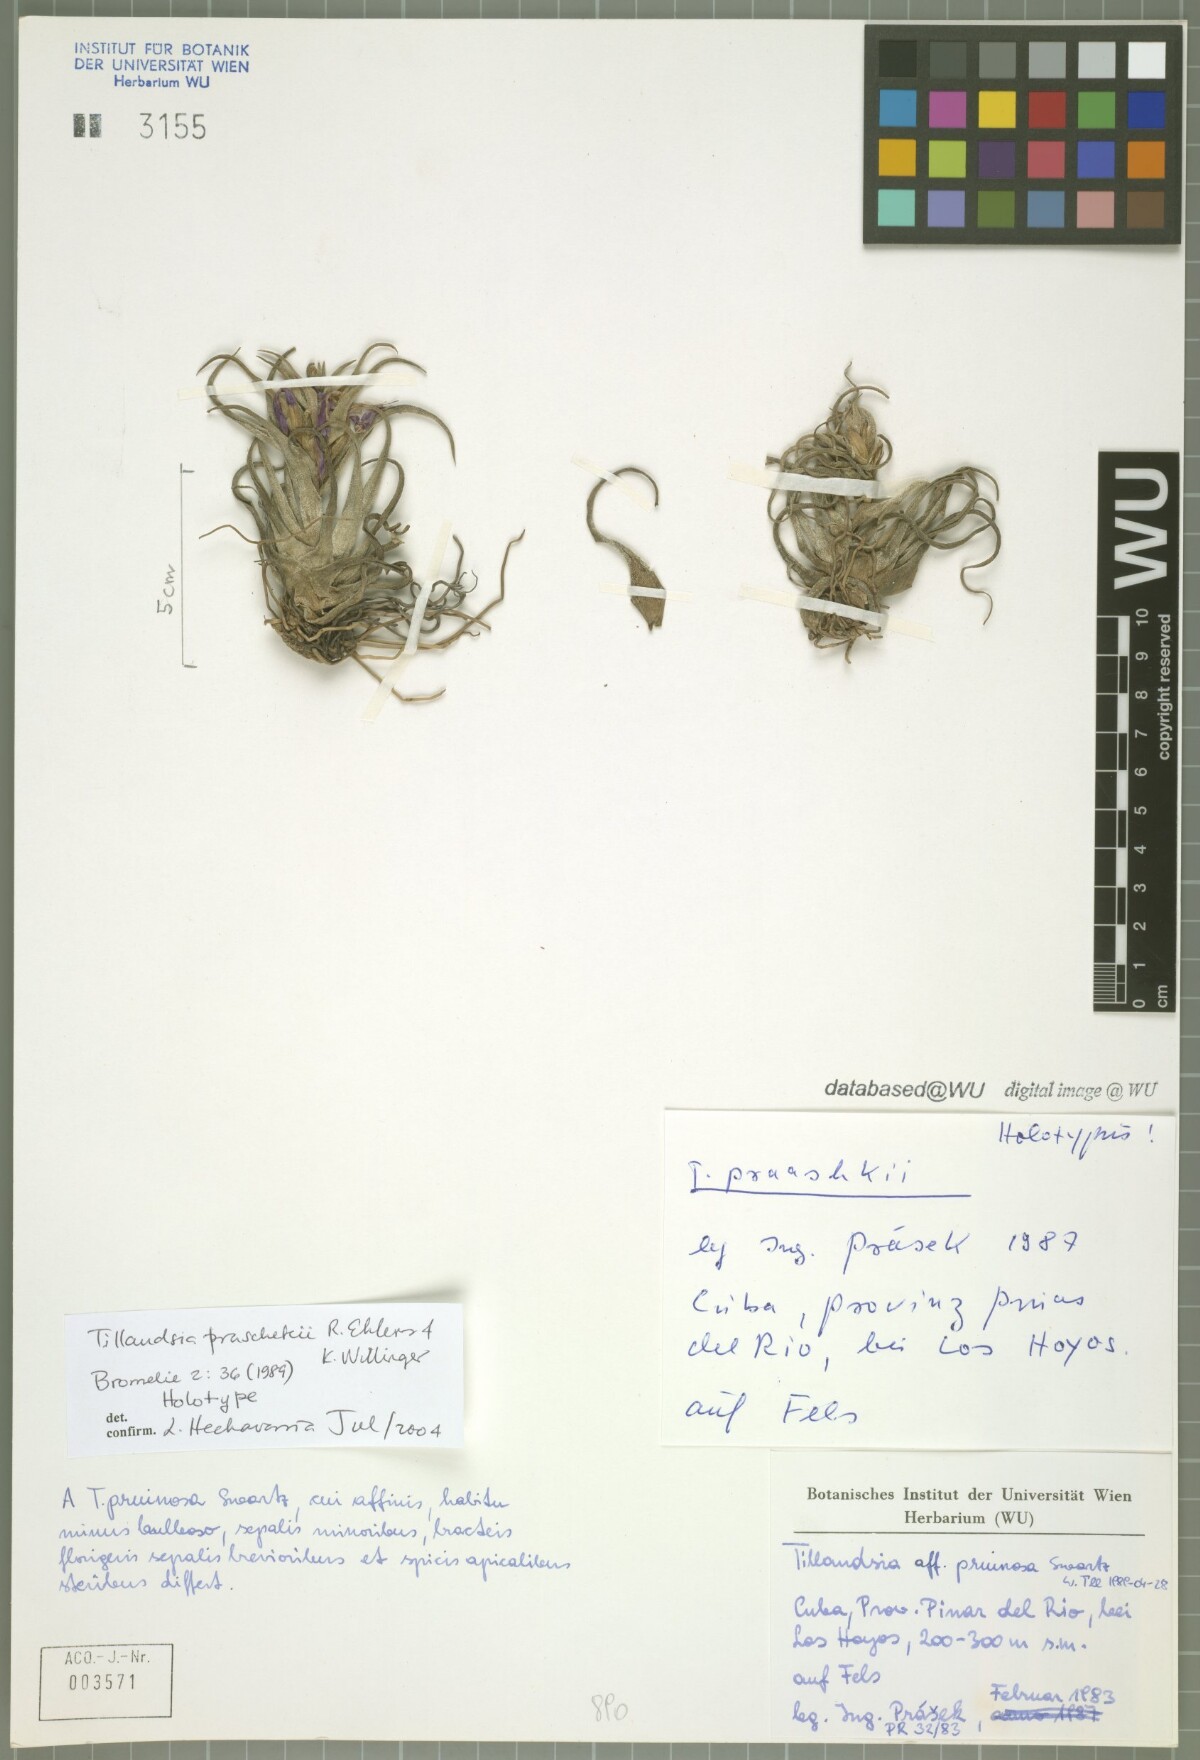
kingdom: Plantae
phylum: Tracheophyta
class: Liliopsida
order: Poales
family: Bromeliaceae
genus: Tillandsia
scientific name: Tillandsia praschekii
